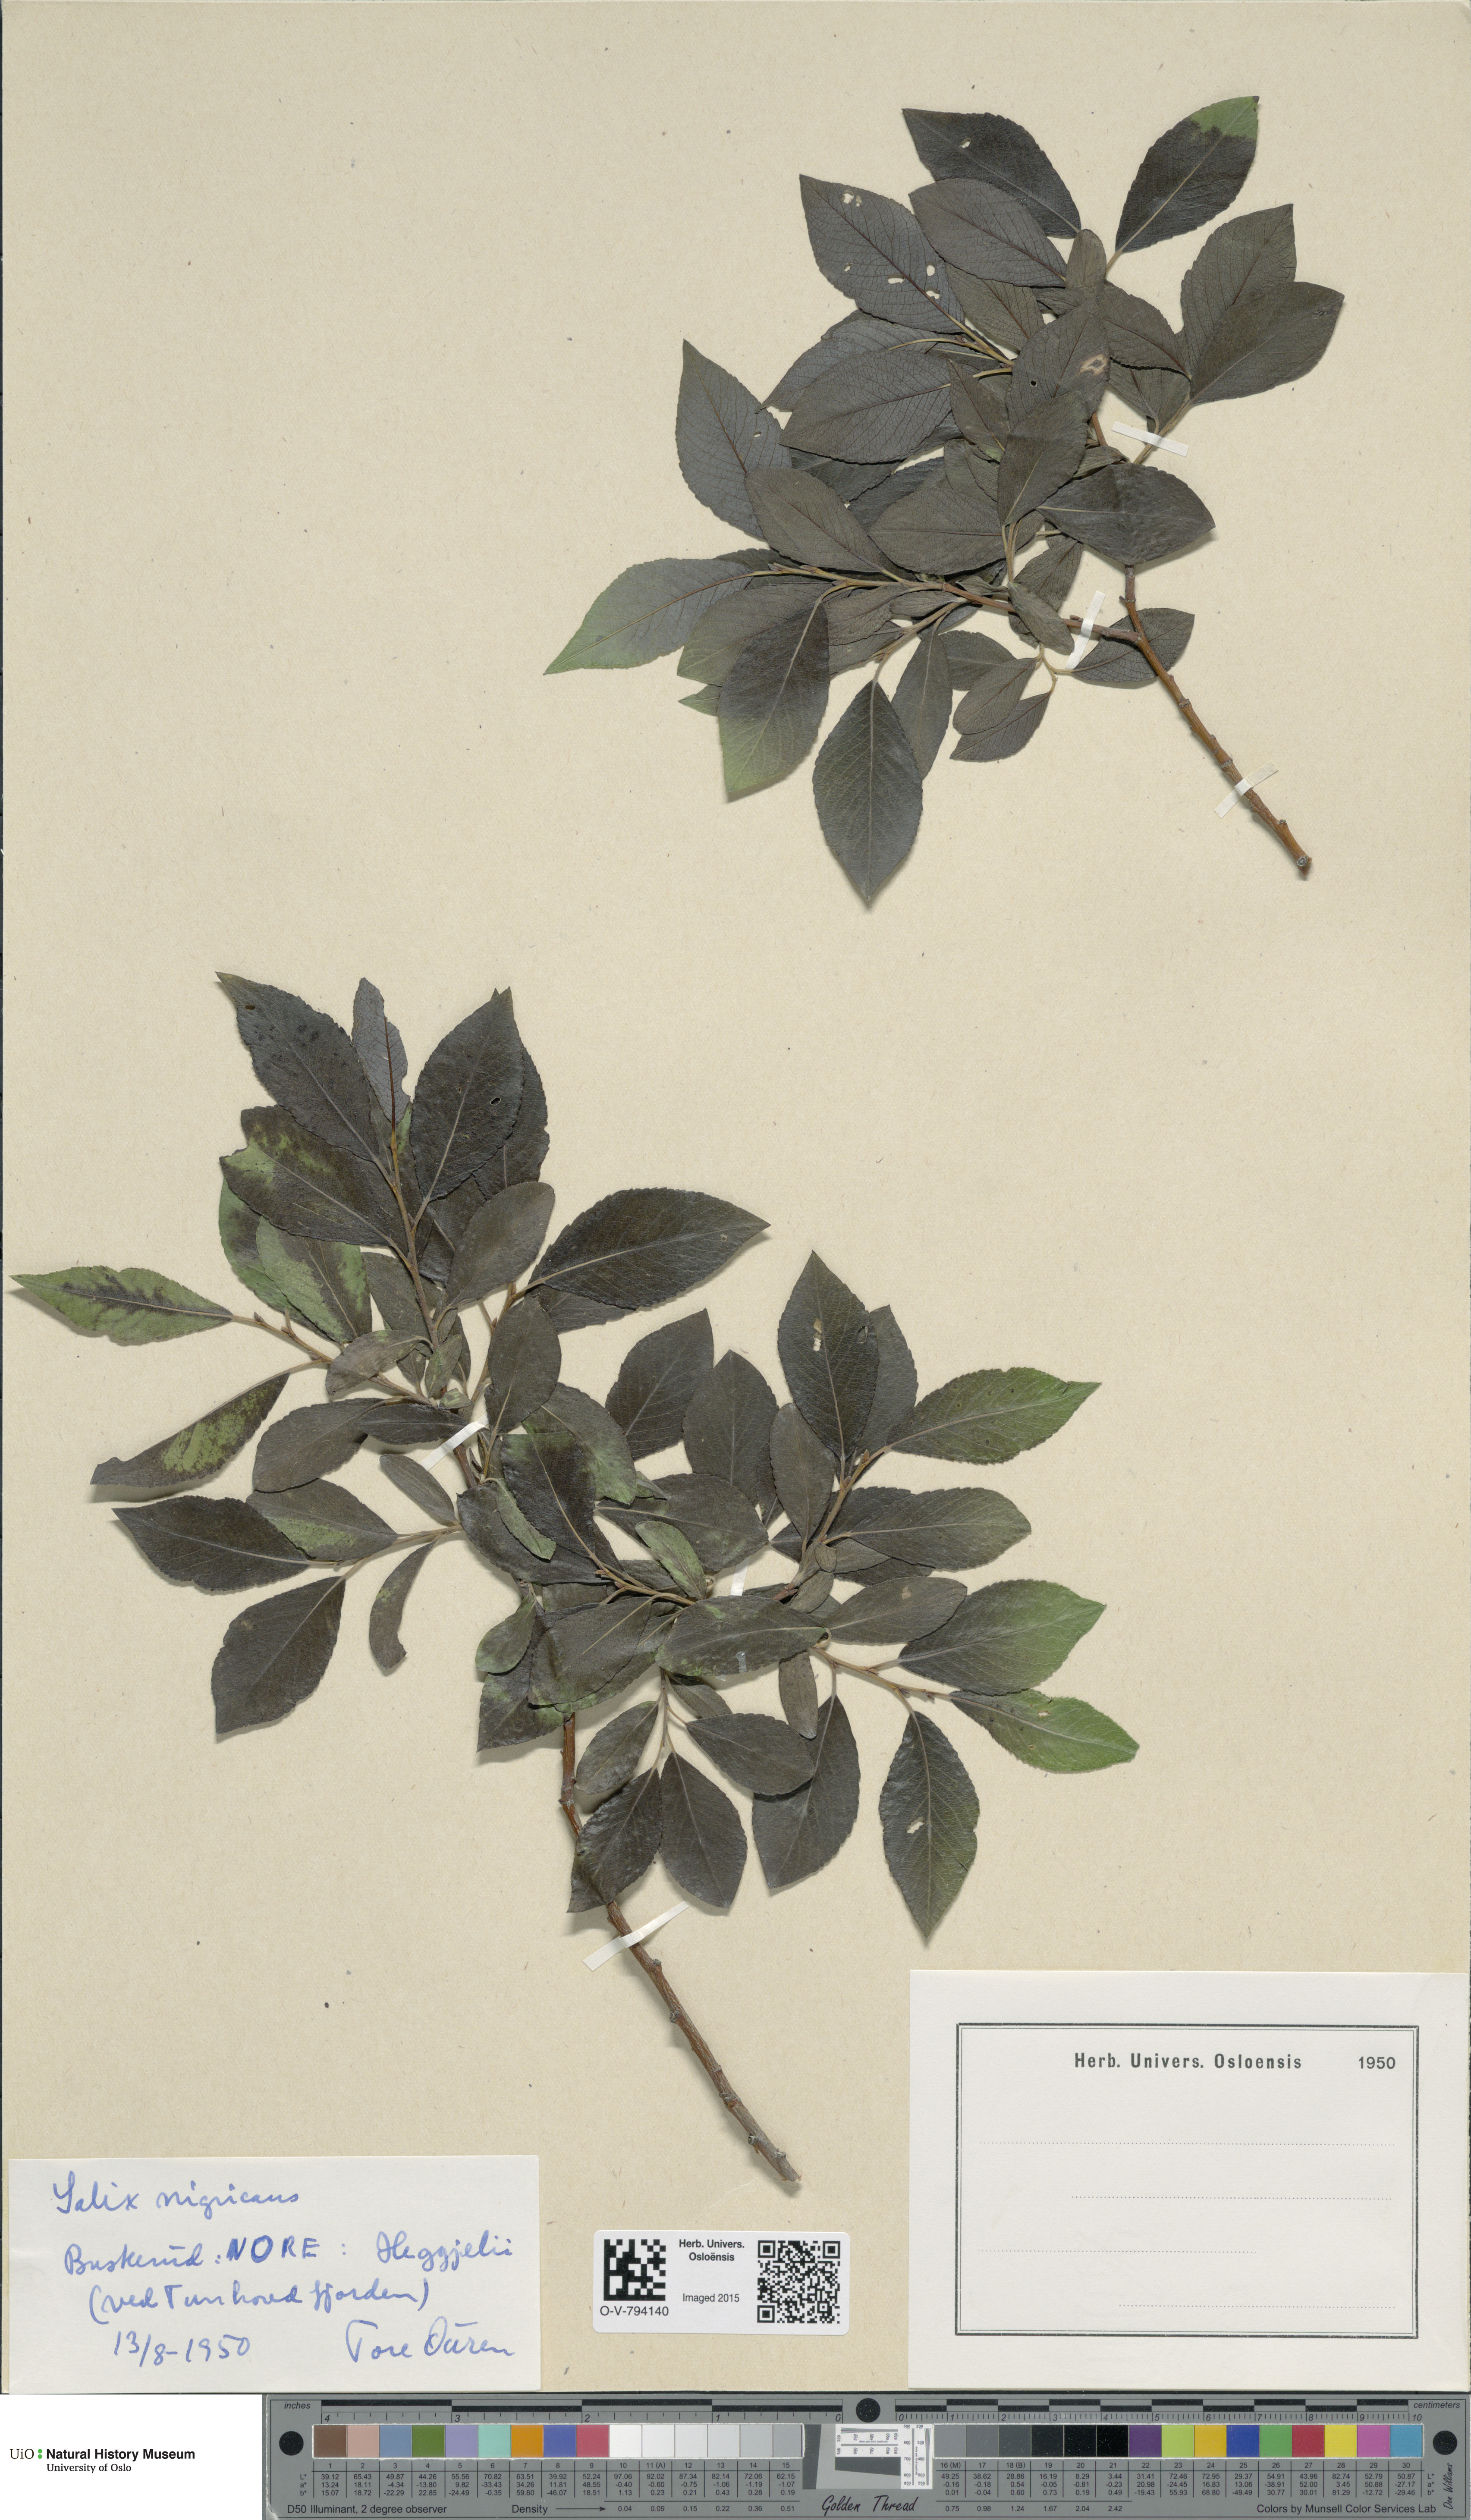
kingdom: Plantae
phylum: Tracheophyta
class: Magnoliopsida
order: Malpighiales
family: Salicaceae
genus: Salix
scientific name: Salix myrsinifolia
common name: Dark-leaved willow
